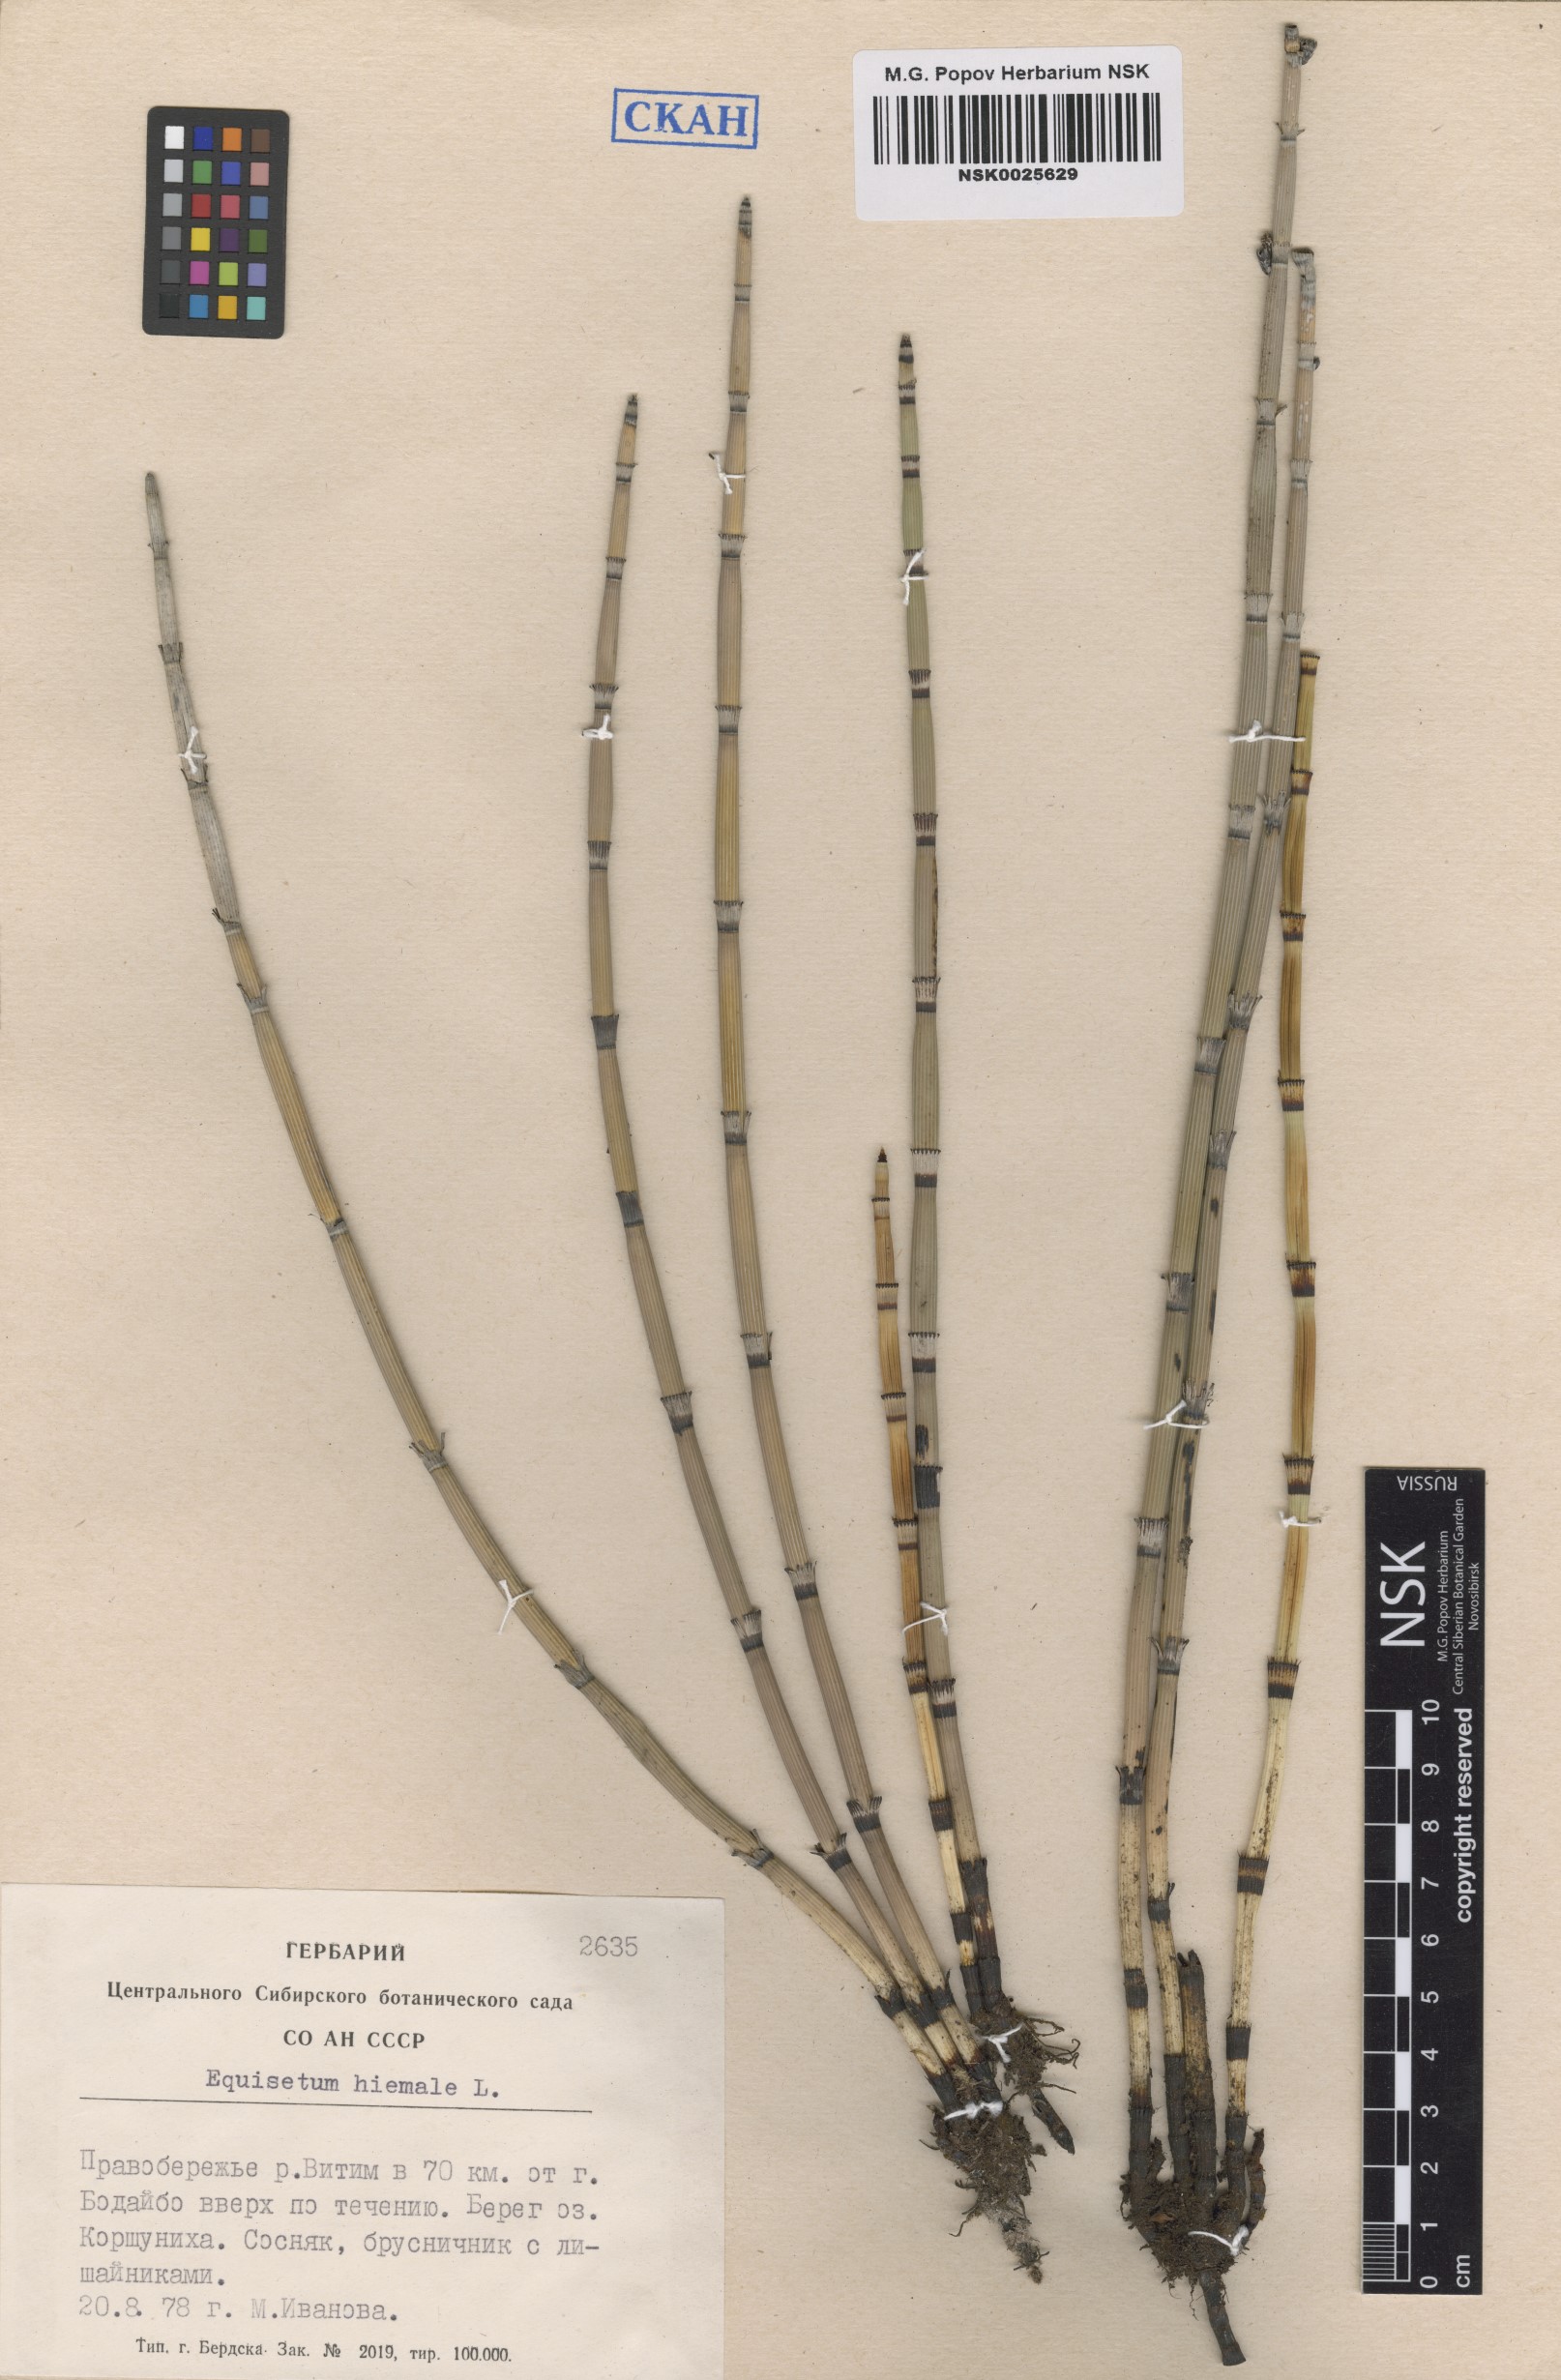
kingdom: Plantae
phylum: Tracheophyta
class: Polypodiopsida
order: Equisetales
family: Equisetaceae
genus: Equisetum
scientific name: Equisetum hyemale
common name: Rough horsetail
